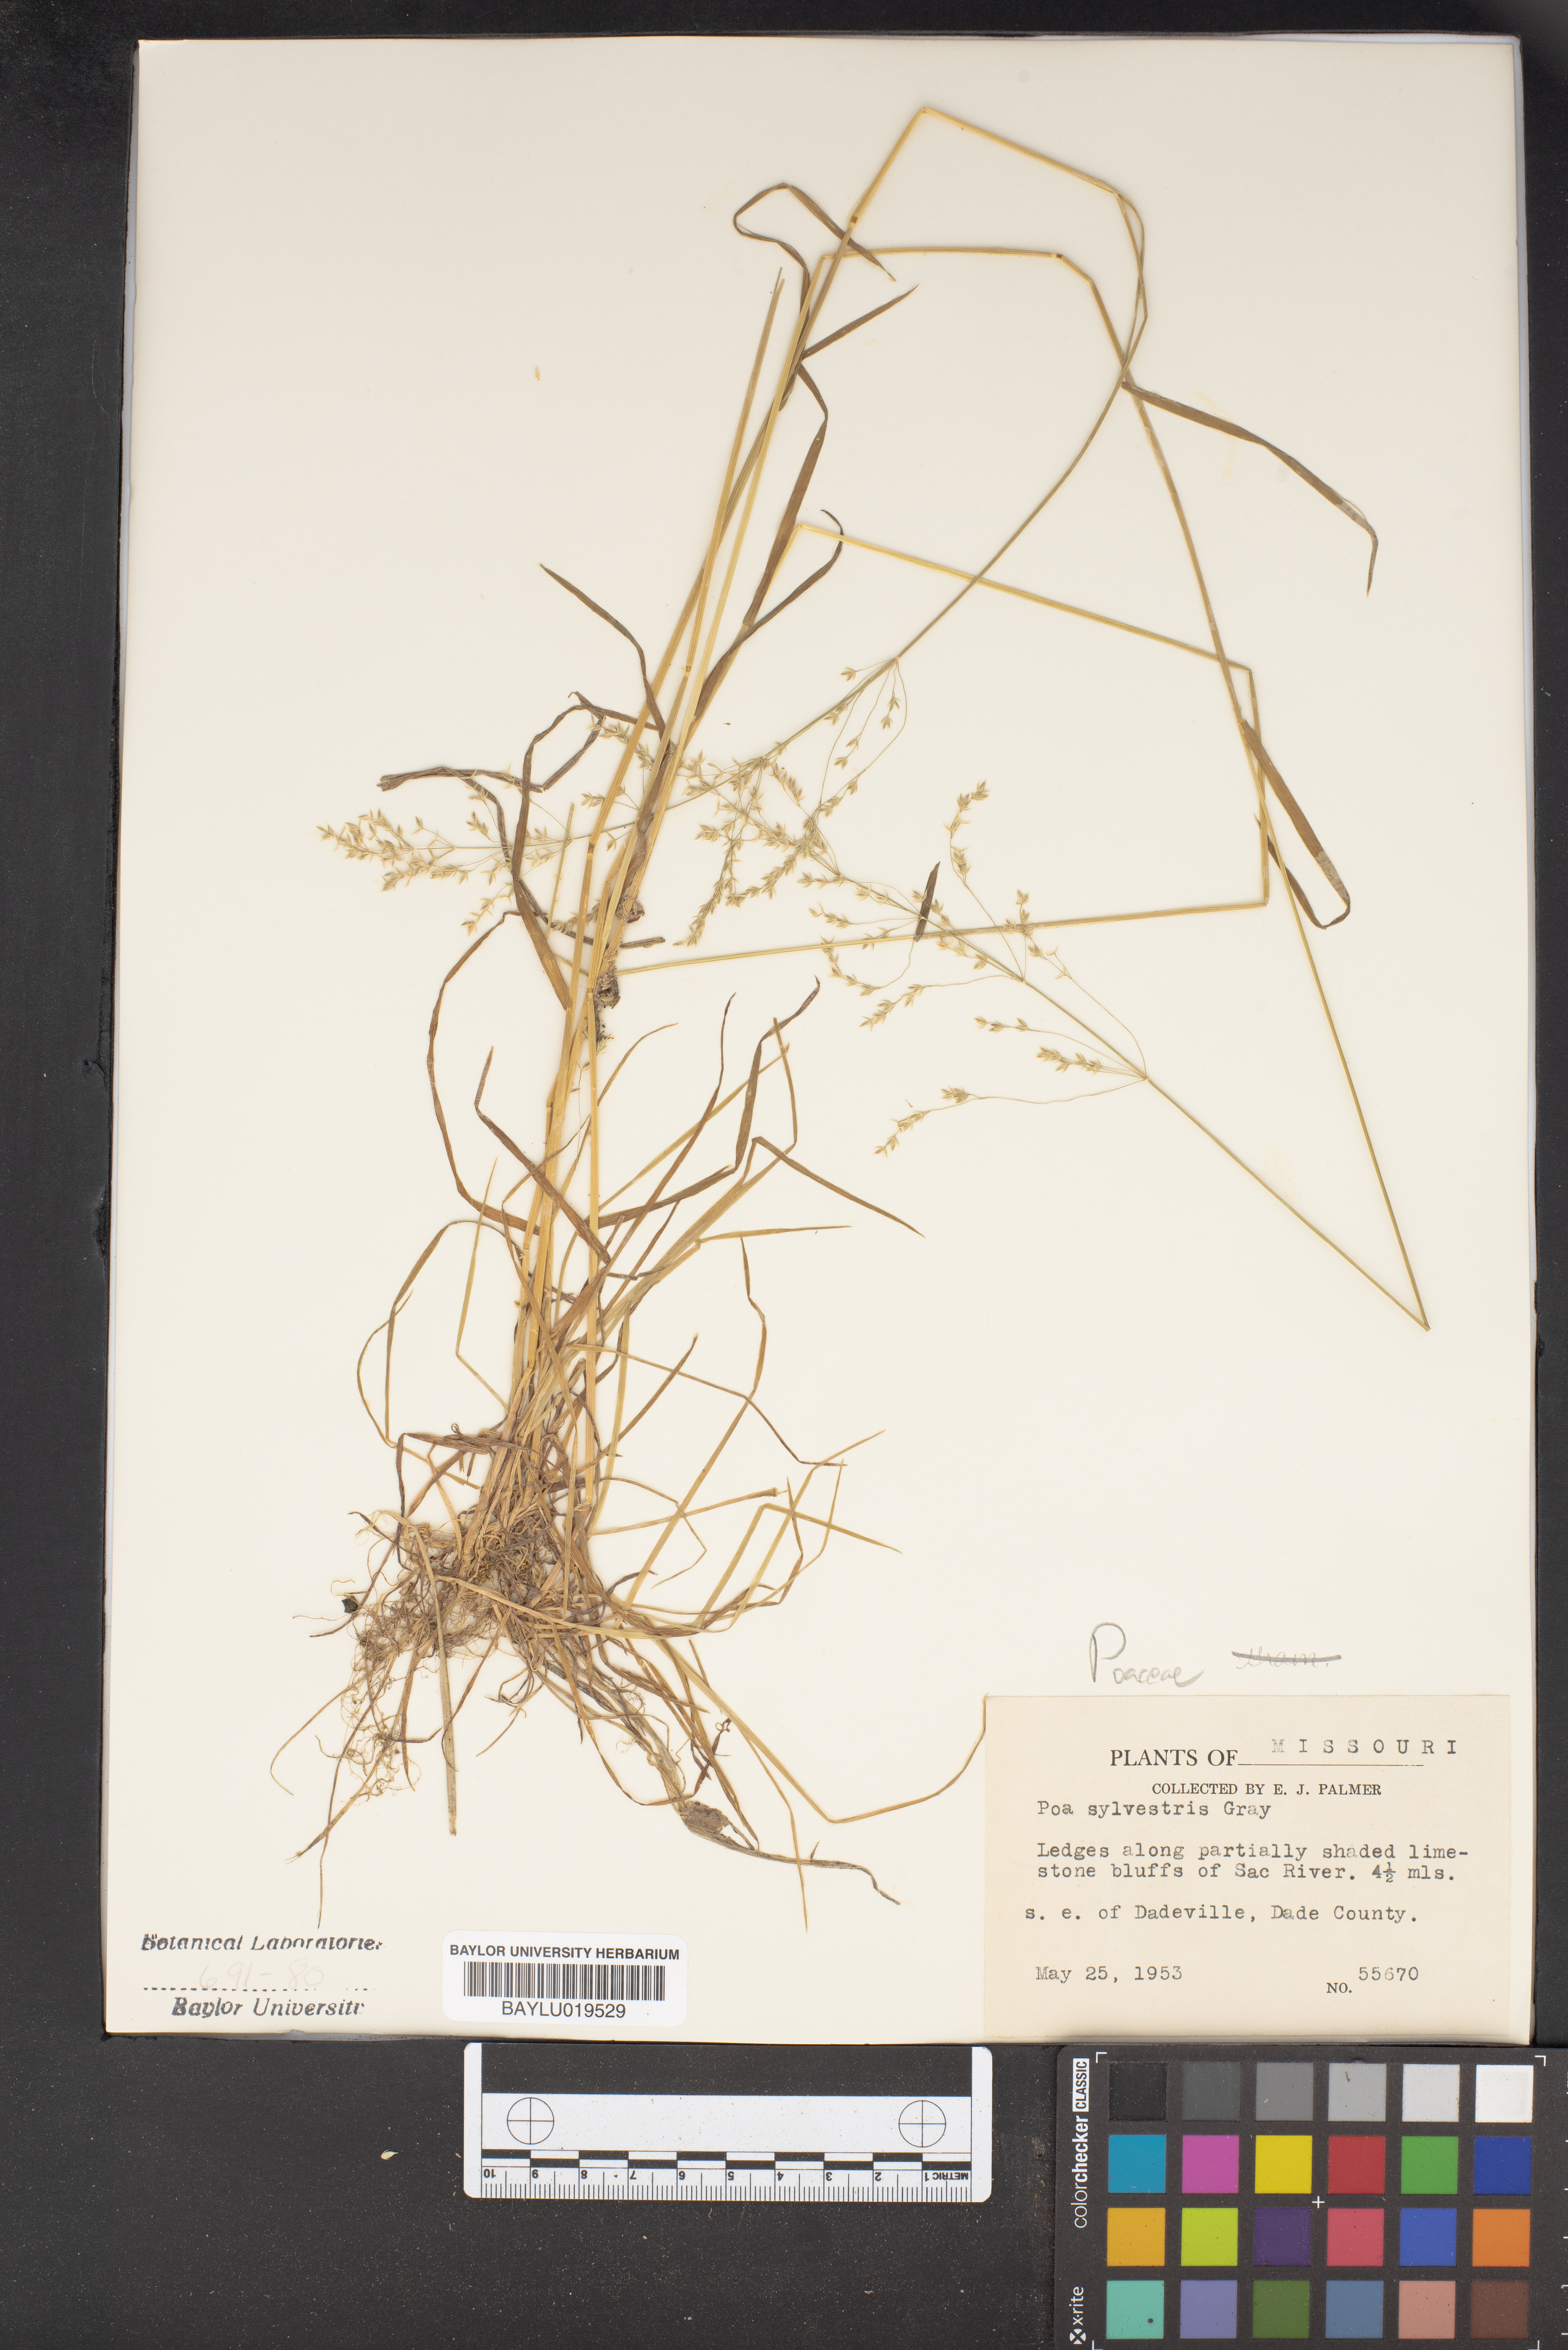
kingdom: Plantae
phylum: Tracheophyta
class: Liliopsida
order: Poales
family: Poaceae
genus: Poa
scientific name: Poa sylvestris
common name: North american woodland bluegrass
